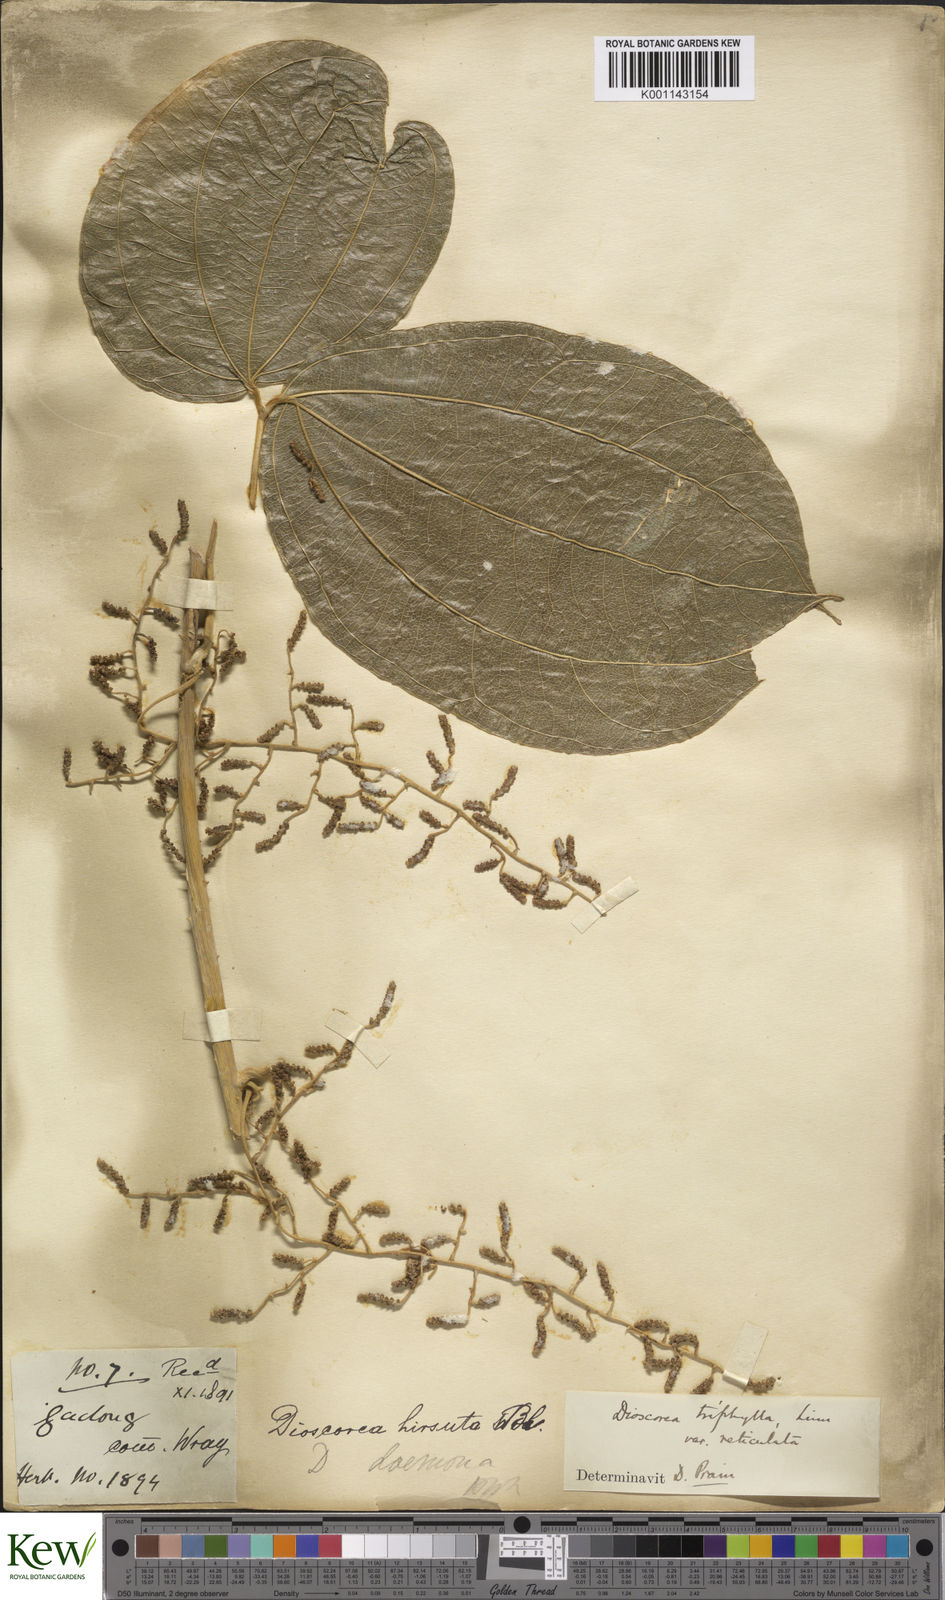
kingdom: Plantae
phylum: Tracheophyta
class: Liliopsida
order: Dioscoreales
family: Dioscoreaceae
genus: Dioscorea
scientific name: Dioscorea hispida
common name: Asiatic bitter yam
